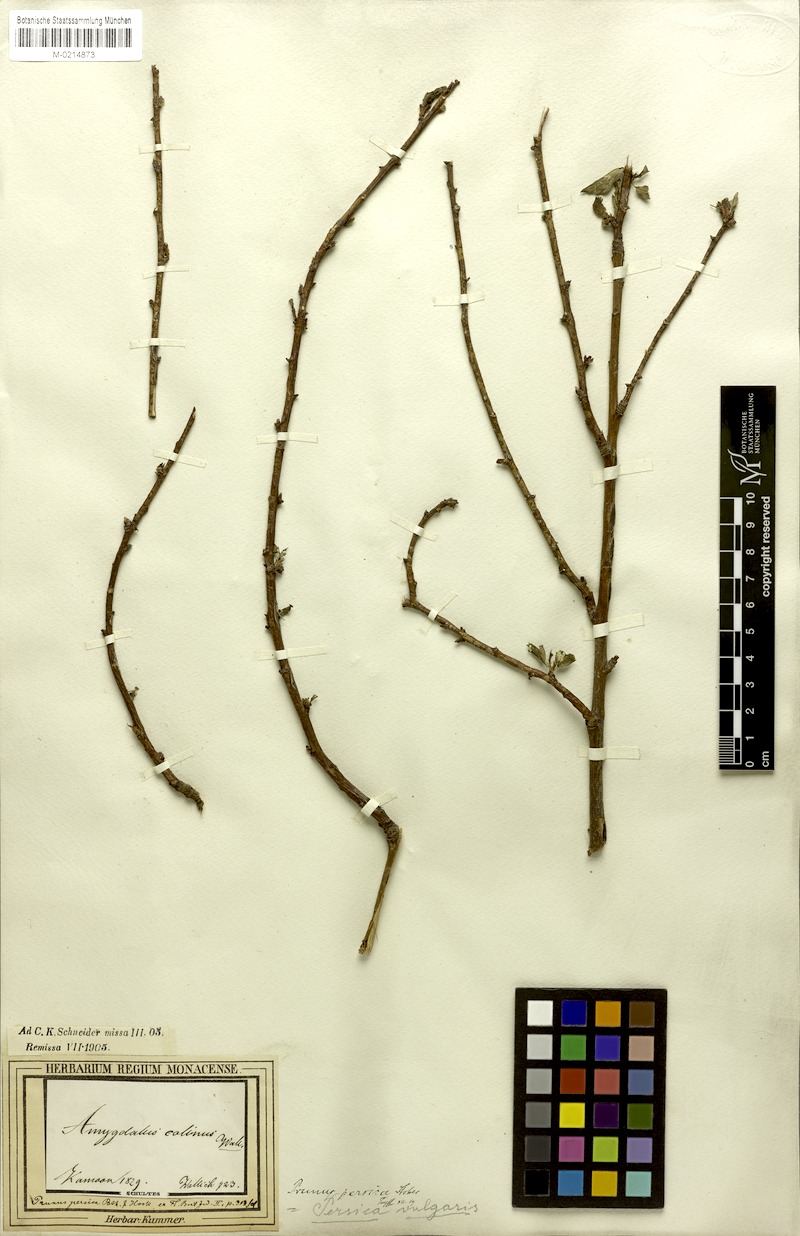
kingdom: Plantae
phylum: Tracheophyta
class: Magnoliopsida
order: Rosales
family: Rosaceae
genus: Prunus
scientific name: Prunus persica
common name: Peach
